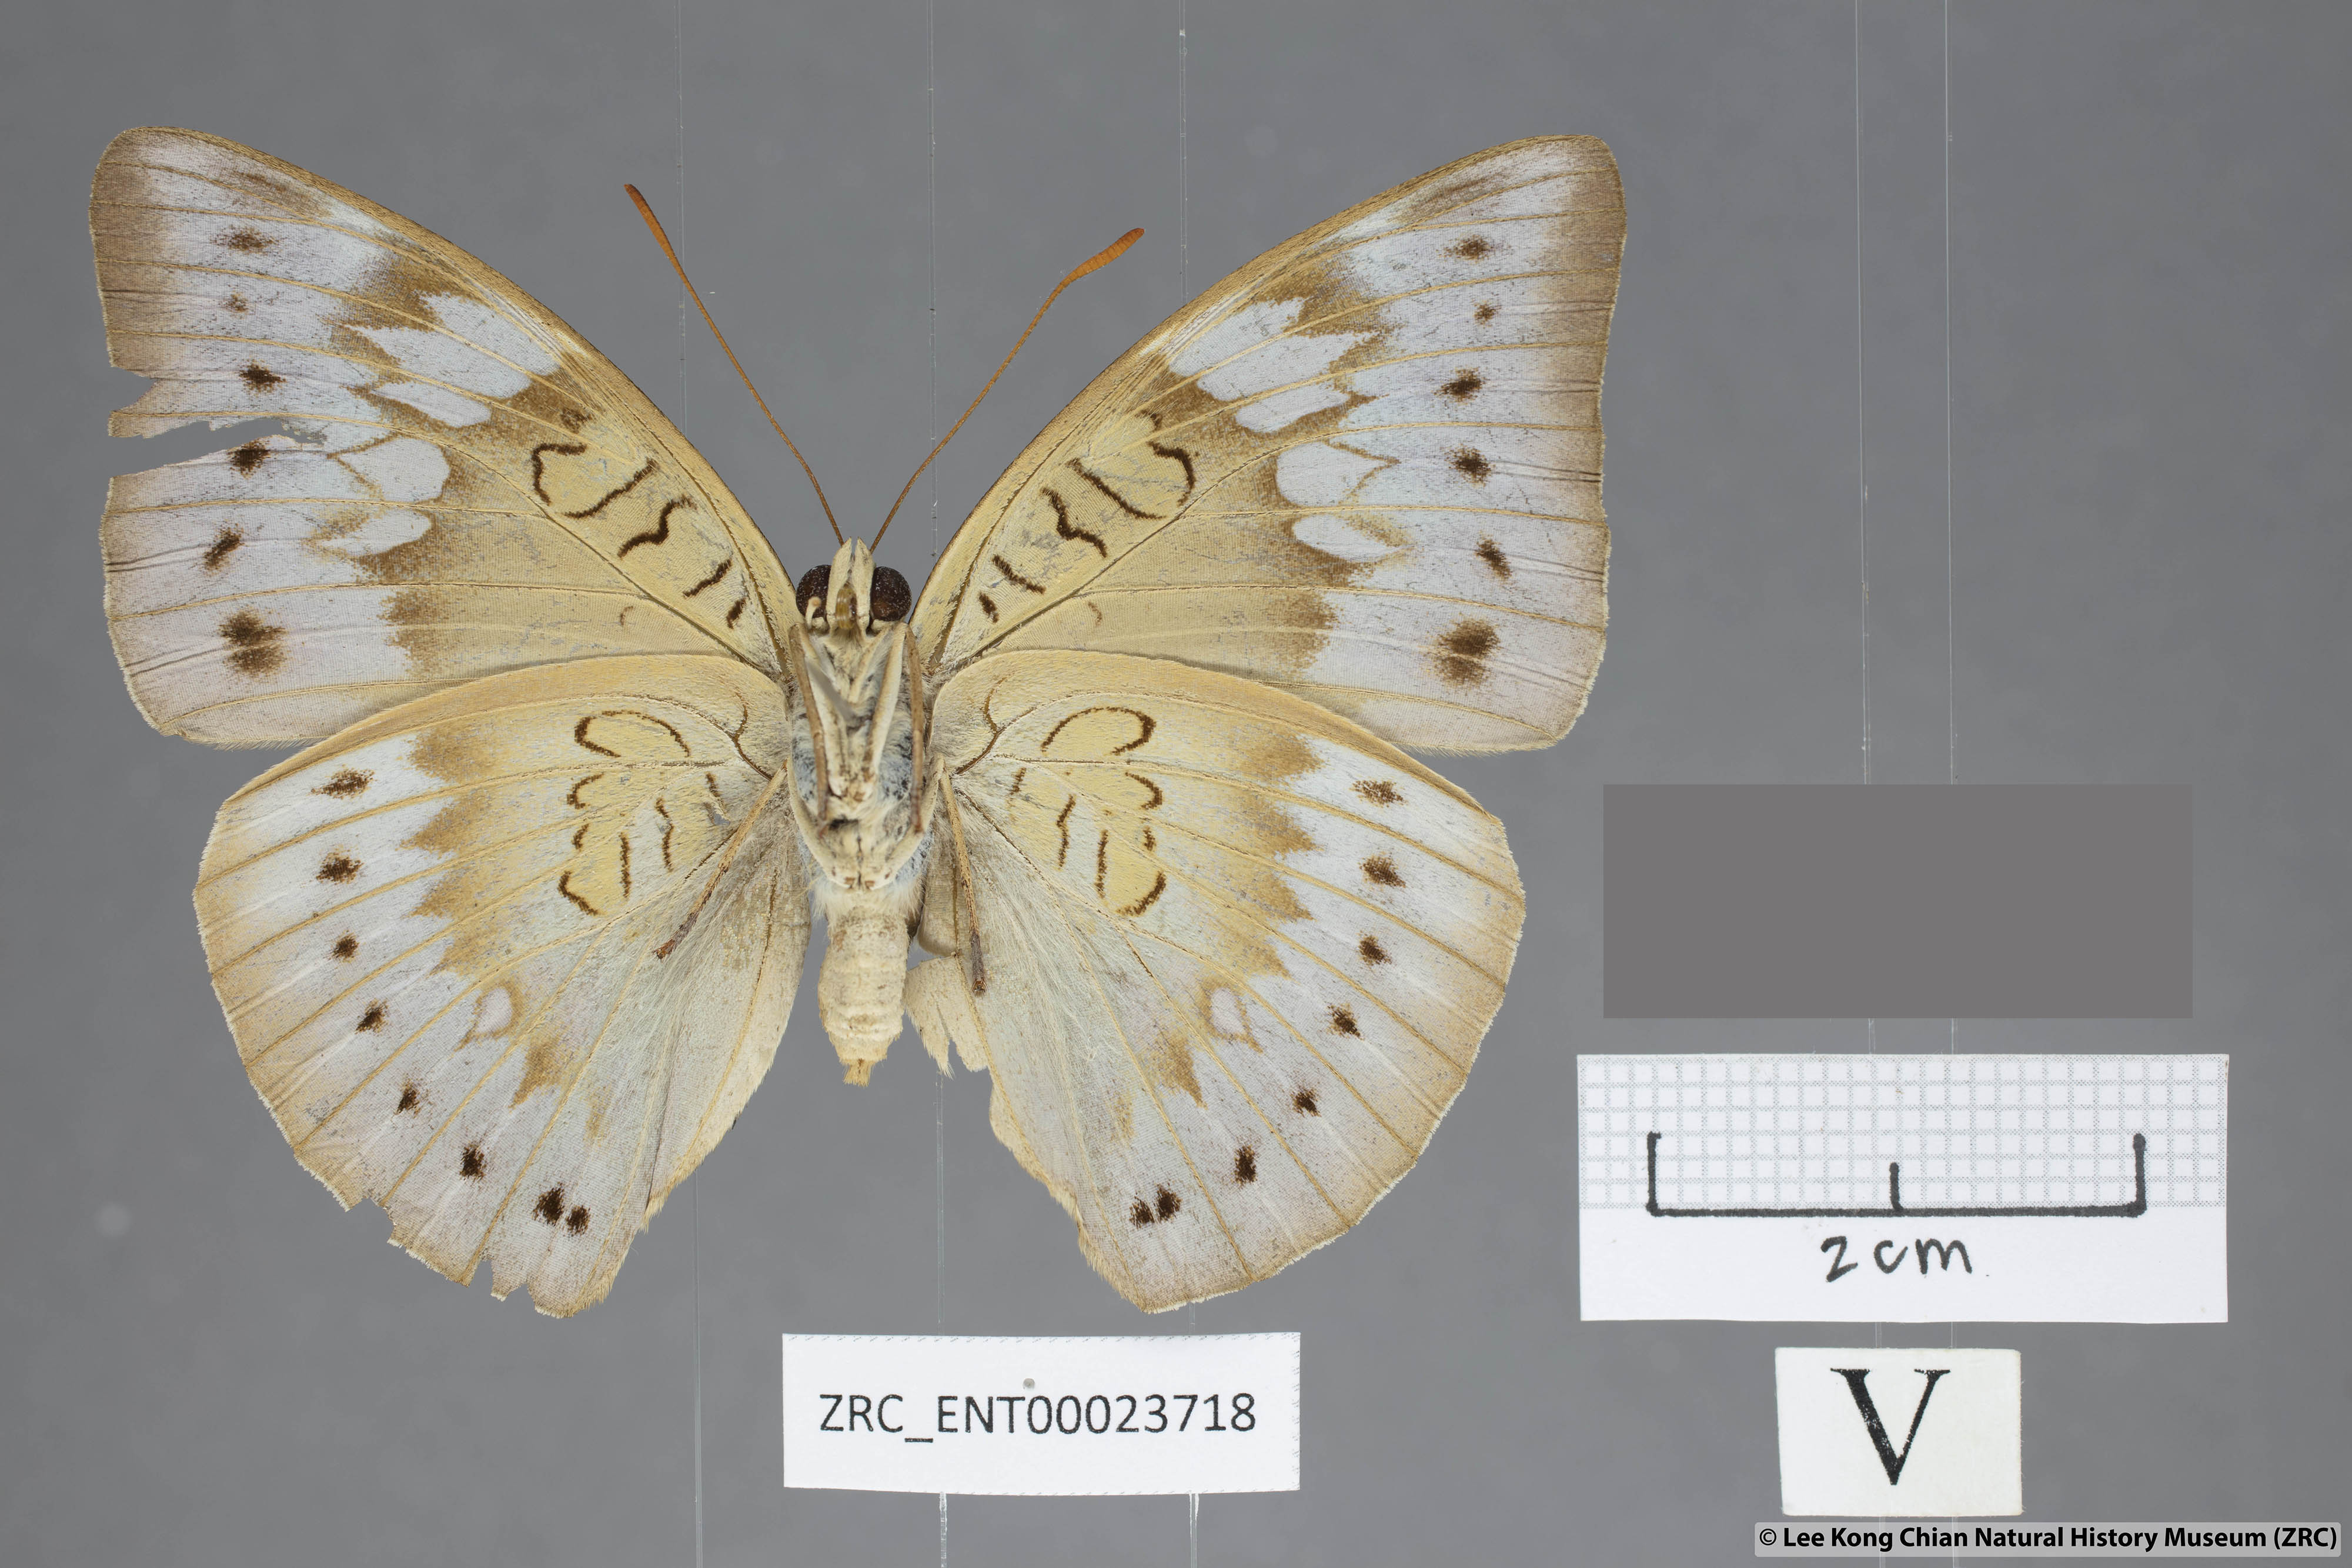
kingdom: Animalia
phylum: Arthropoda
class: Insecta
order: Lepidoptera
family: Nymphalidae
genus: Euthalia
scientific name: Euthalia merta
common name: White tipped baron
